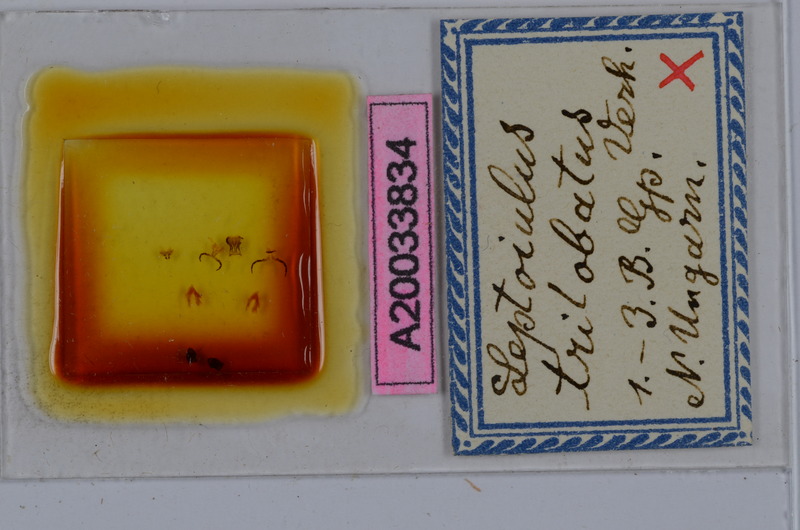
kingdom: Animalia
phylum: Arthropoda
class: Diplopoda
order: Julida
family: Julidae
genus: Leptoiulus
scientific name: Leptoiulus trilobatus
